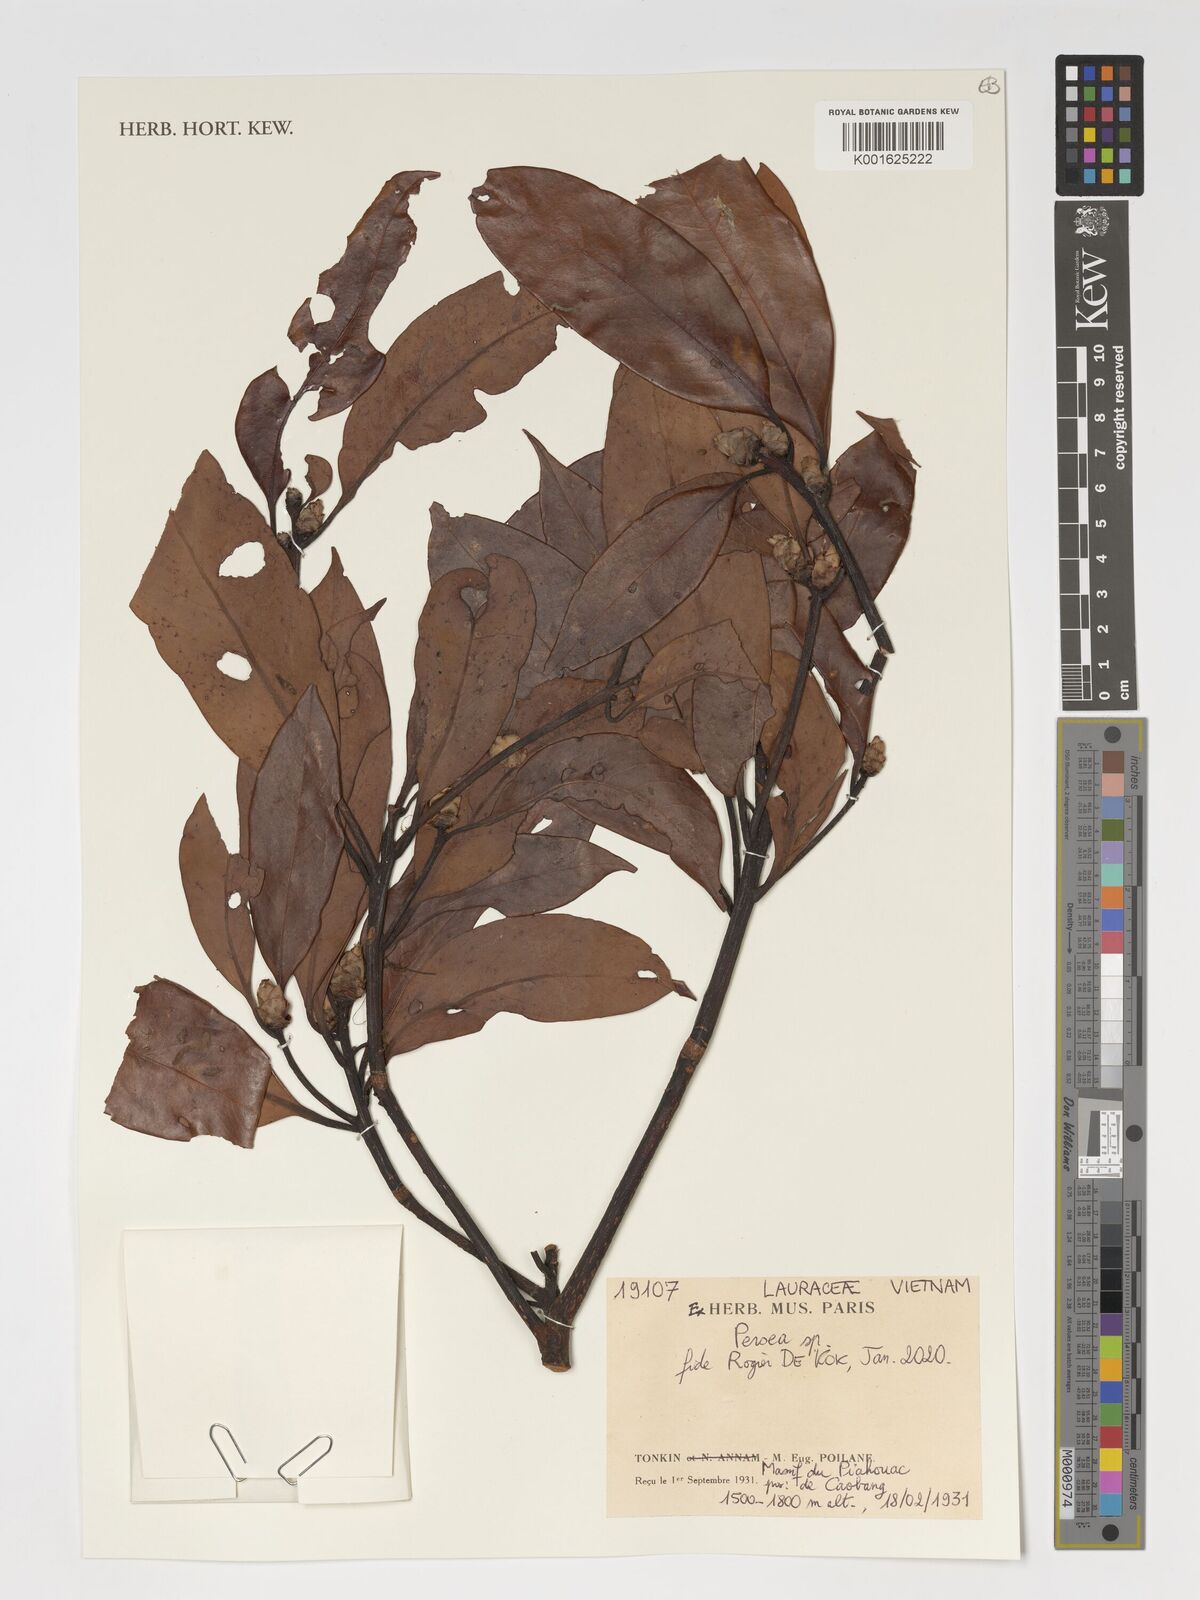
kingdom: Plantae
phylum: Tracheophyta
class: Magnoliopsida
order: Laurales
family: Lauraceae
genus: Persea
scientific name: Persea
